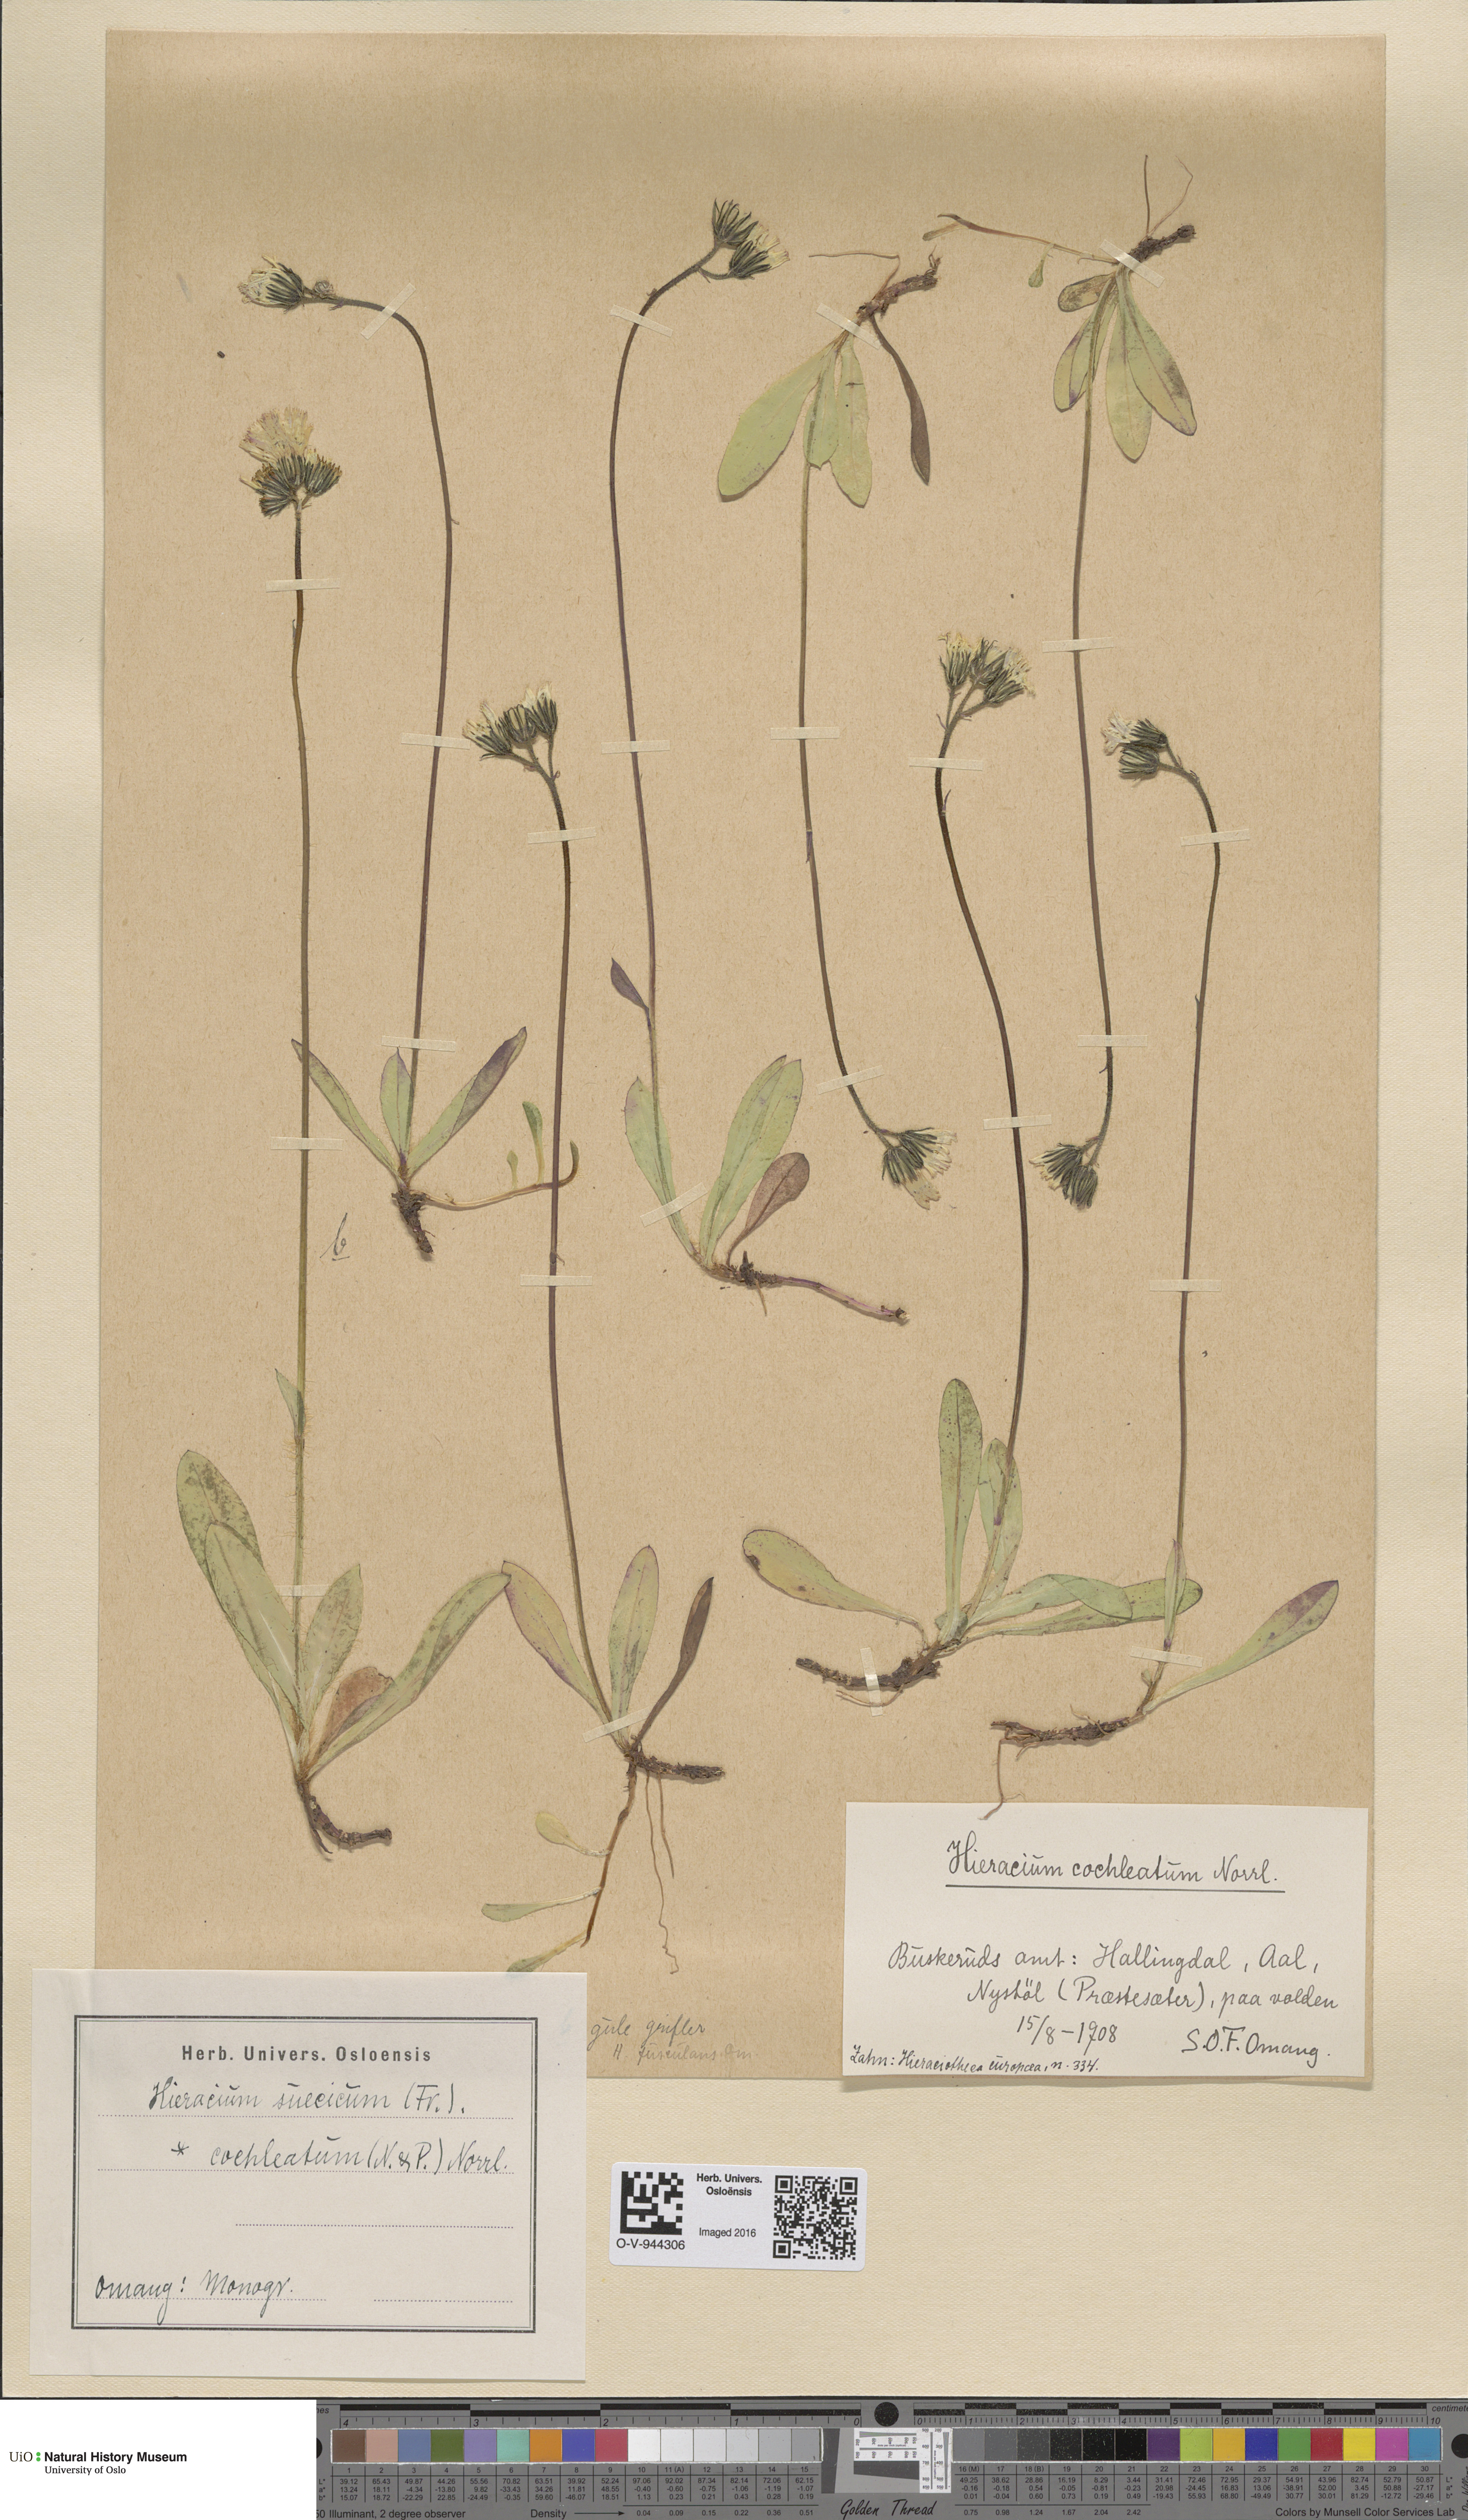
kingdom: Plantae
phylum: Tracheophyta
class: Magnoliopsida
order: Asterales
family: Asteraceae
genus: Pilosella
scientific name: Pilosella dubia
